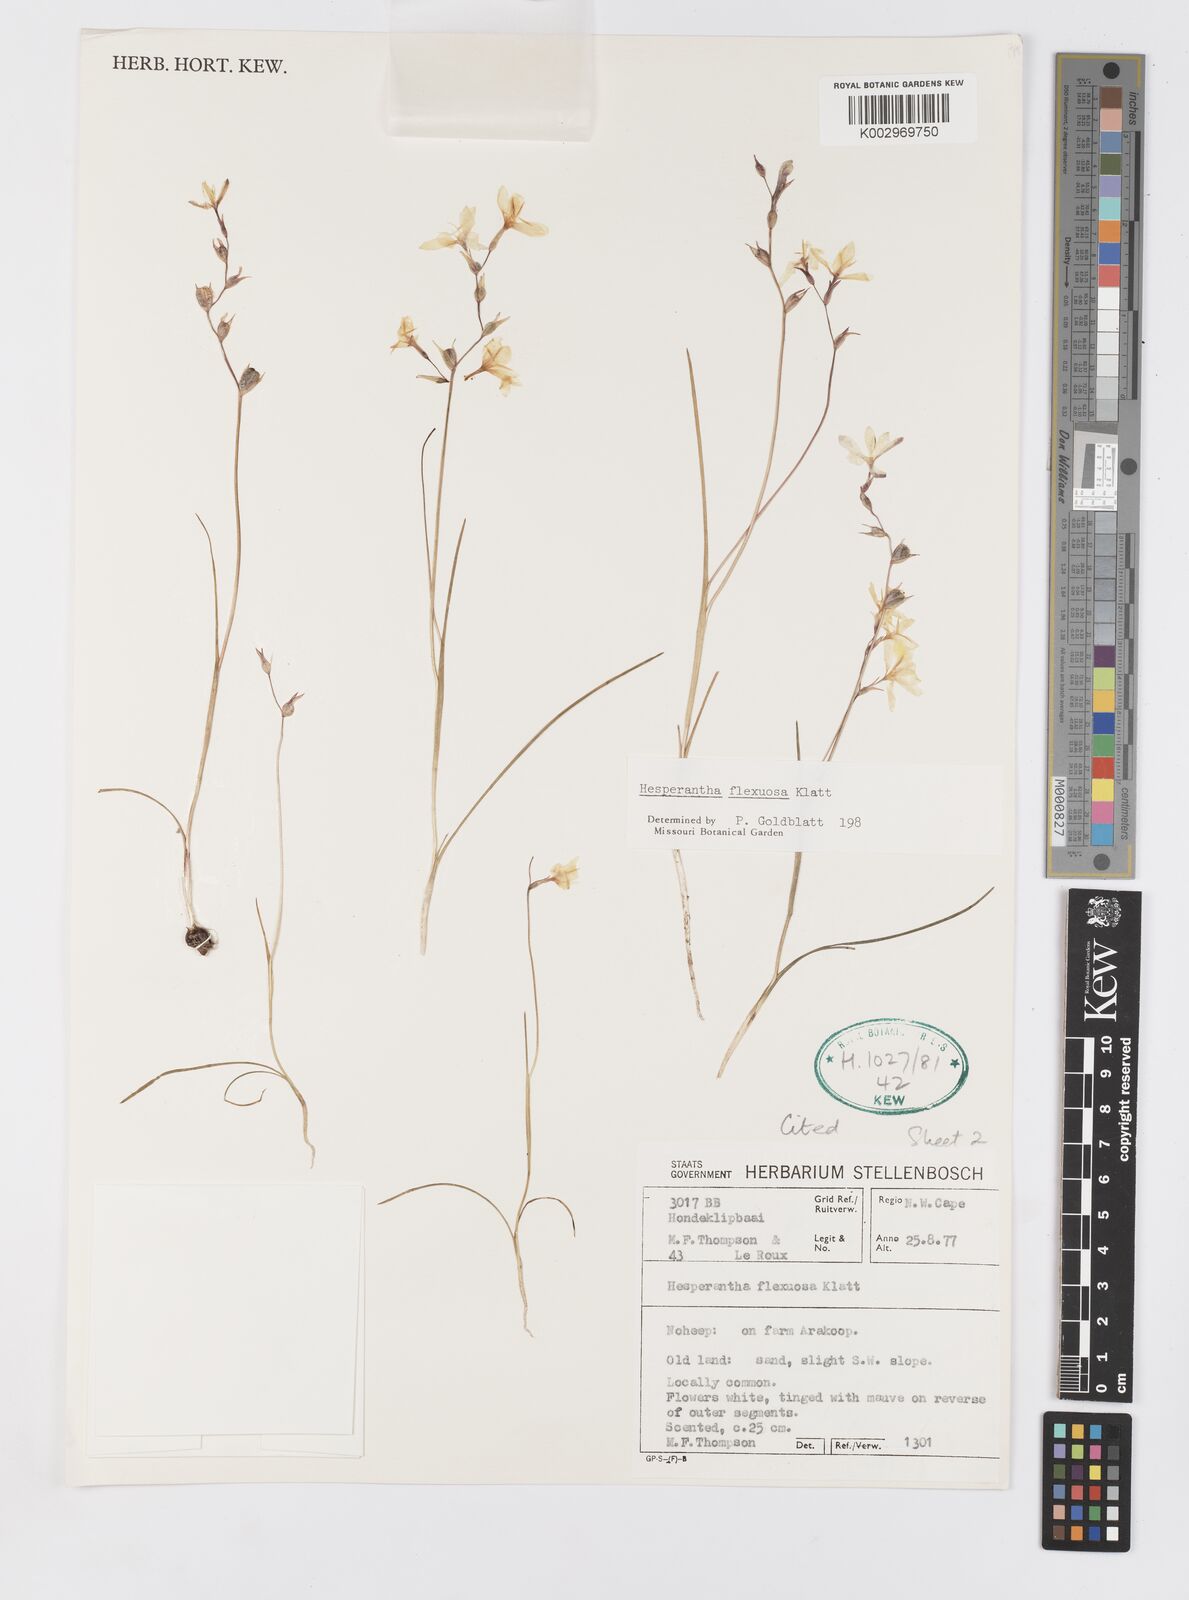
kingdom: Plantae
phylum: Tracheophyta
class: Liliopsida
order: Asparagales
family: Iridaceae
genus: Hesperantha
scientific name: Hesperantha flexuosa
